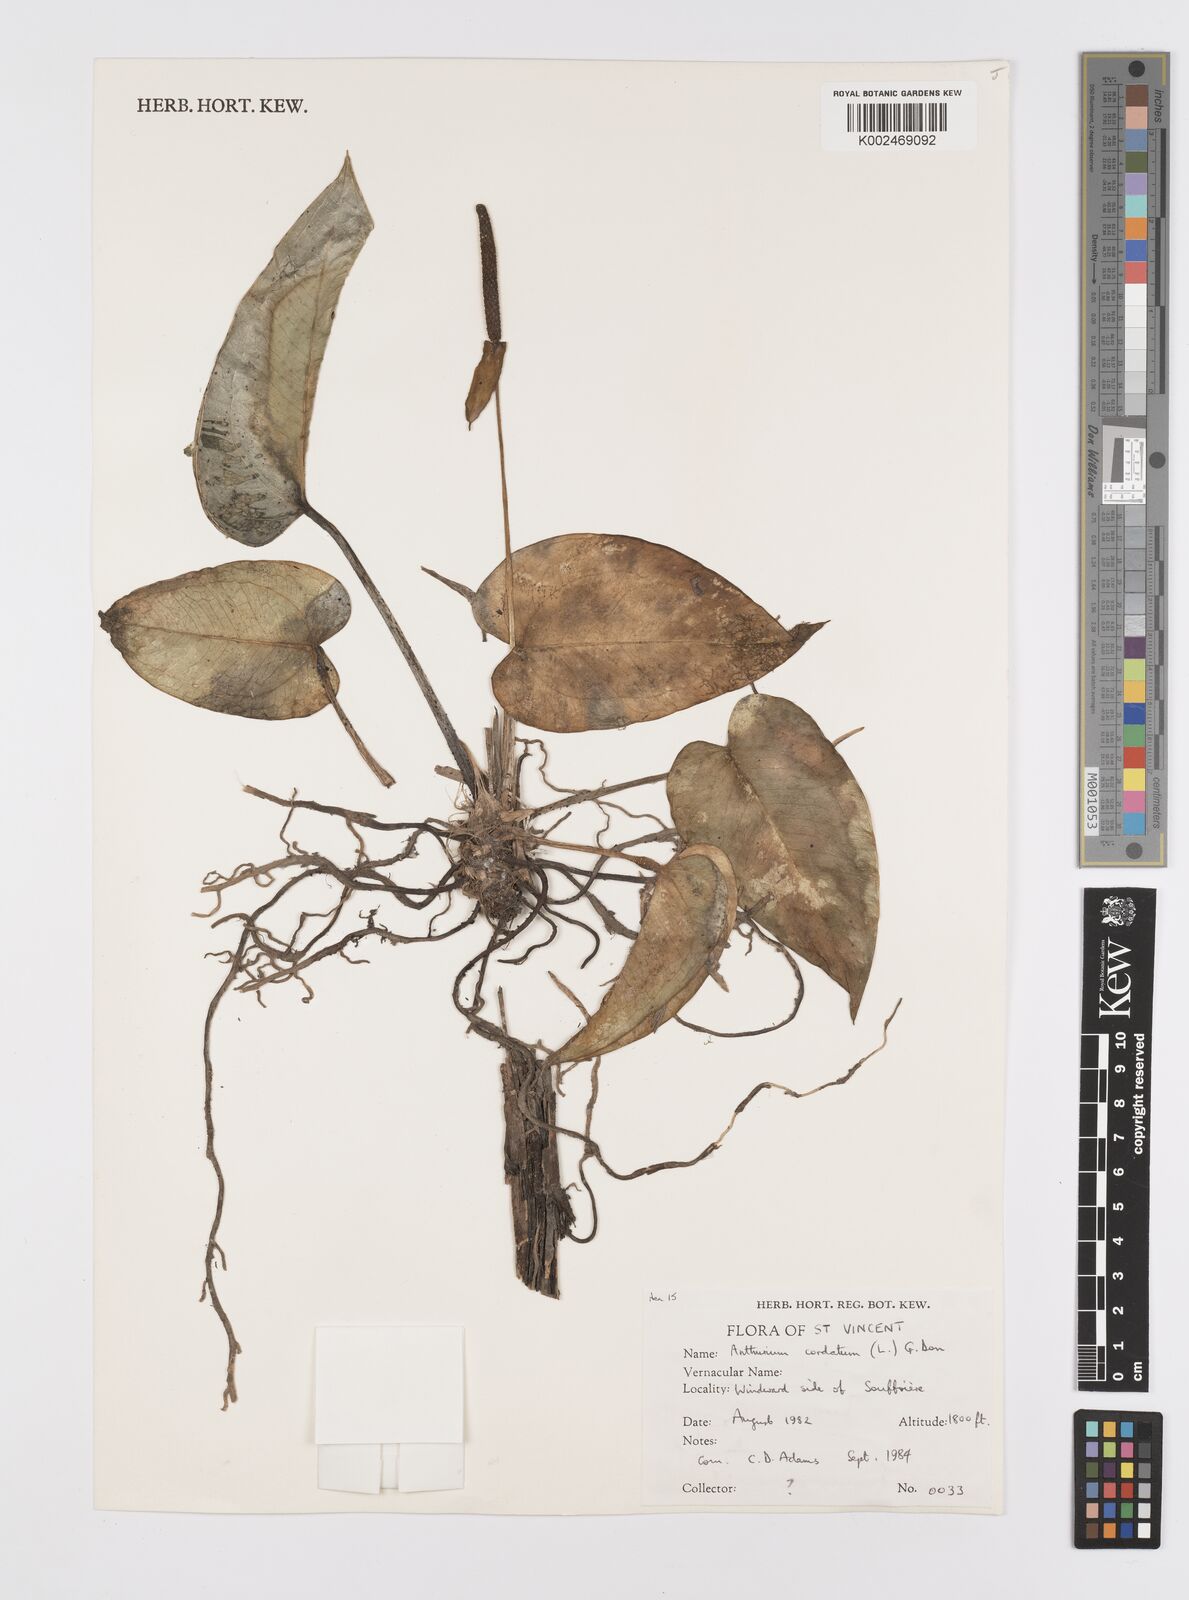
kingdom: Plantae
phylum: Tracheophyta
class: Liliopsida
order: Alismatales
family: Araceae
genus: Anthurium
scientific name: Anthurium
